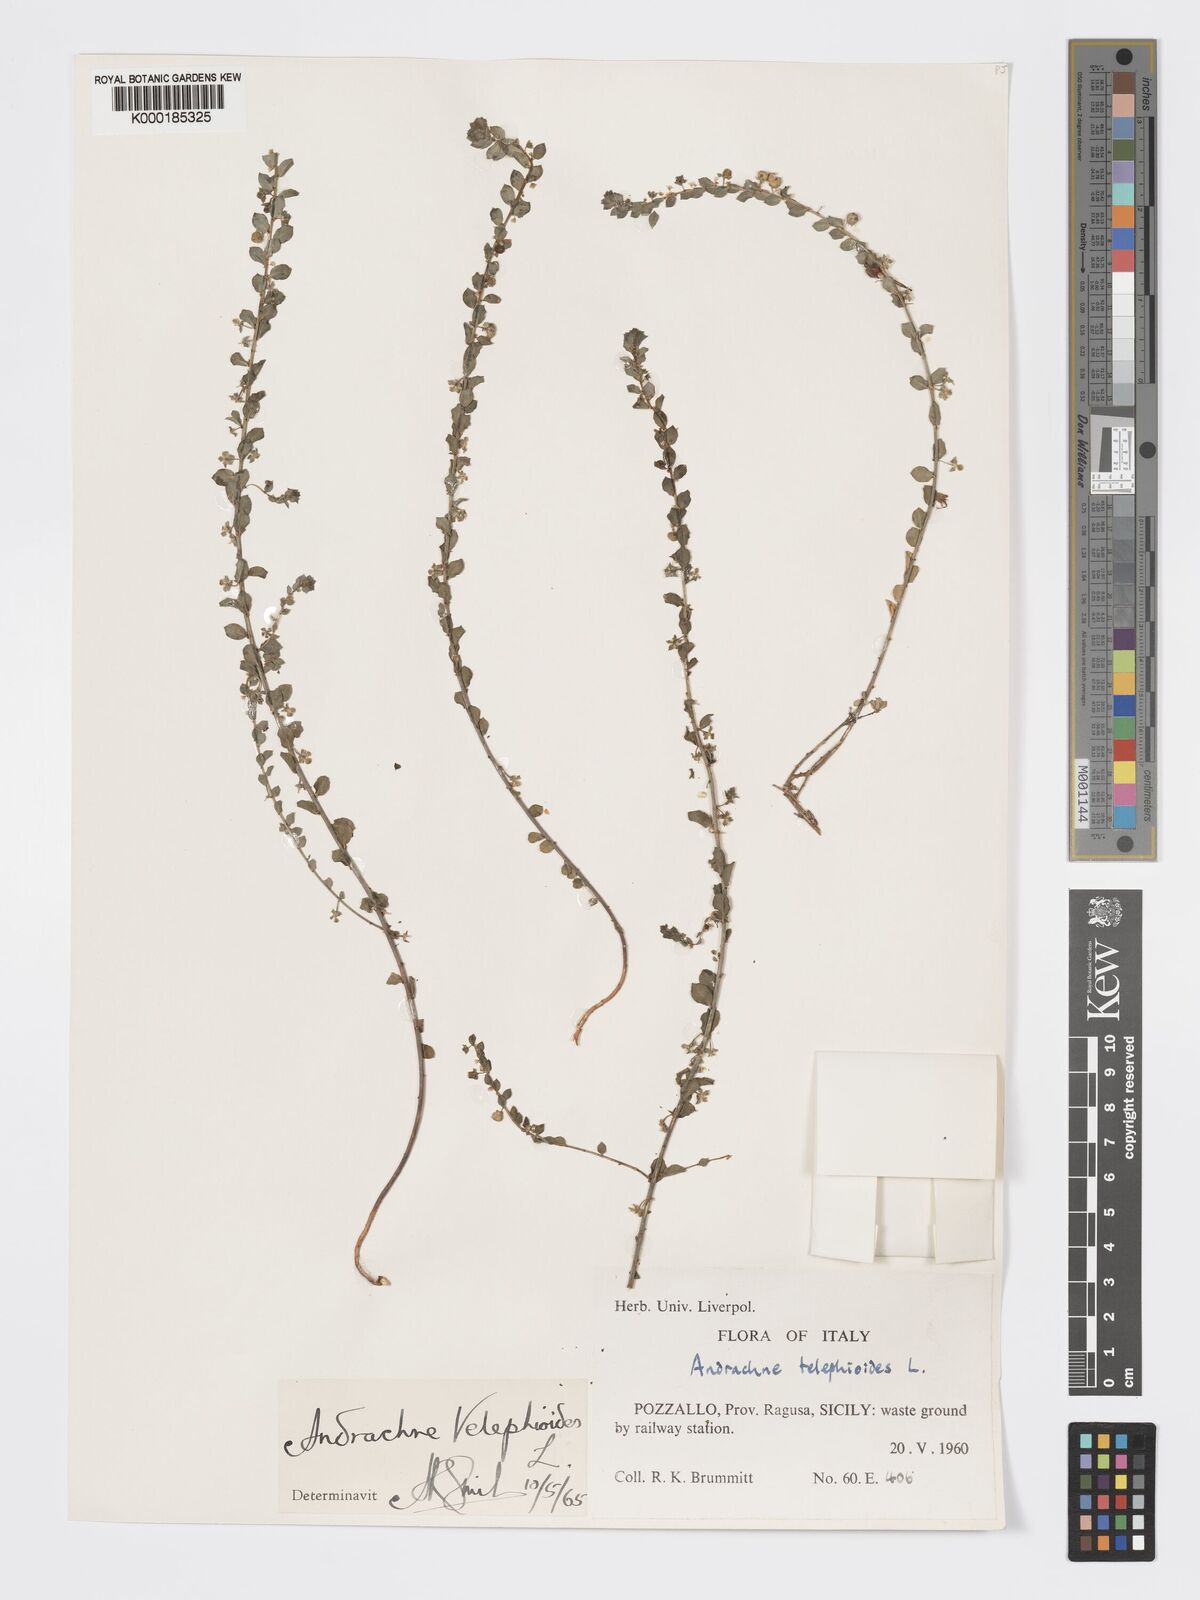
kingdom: Plantae
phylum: Tracheophyta
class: Magnoliopsida
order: Malpighiales
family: Phyllanthaceae
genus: Andrachne
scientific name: Andrachne telephioides
